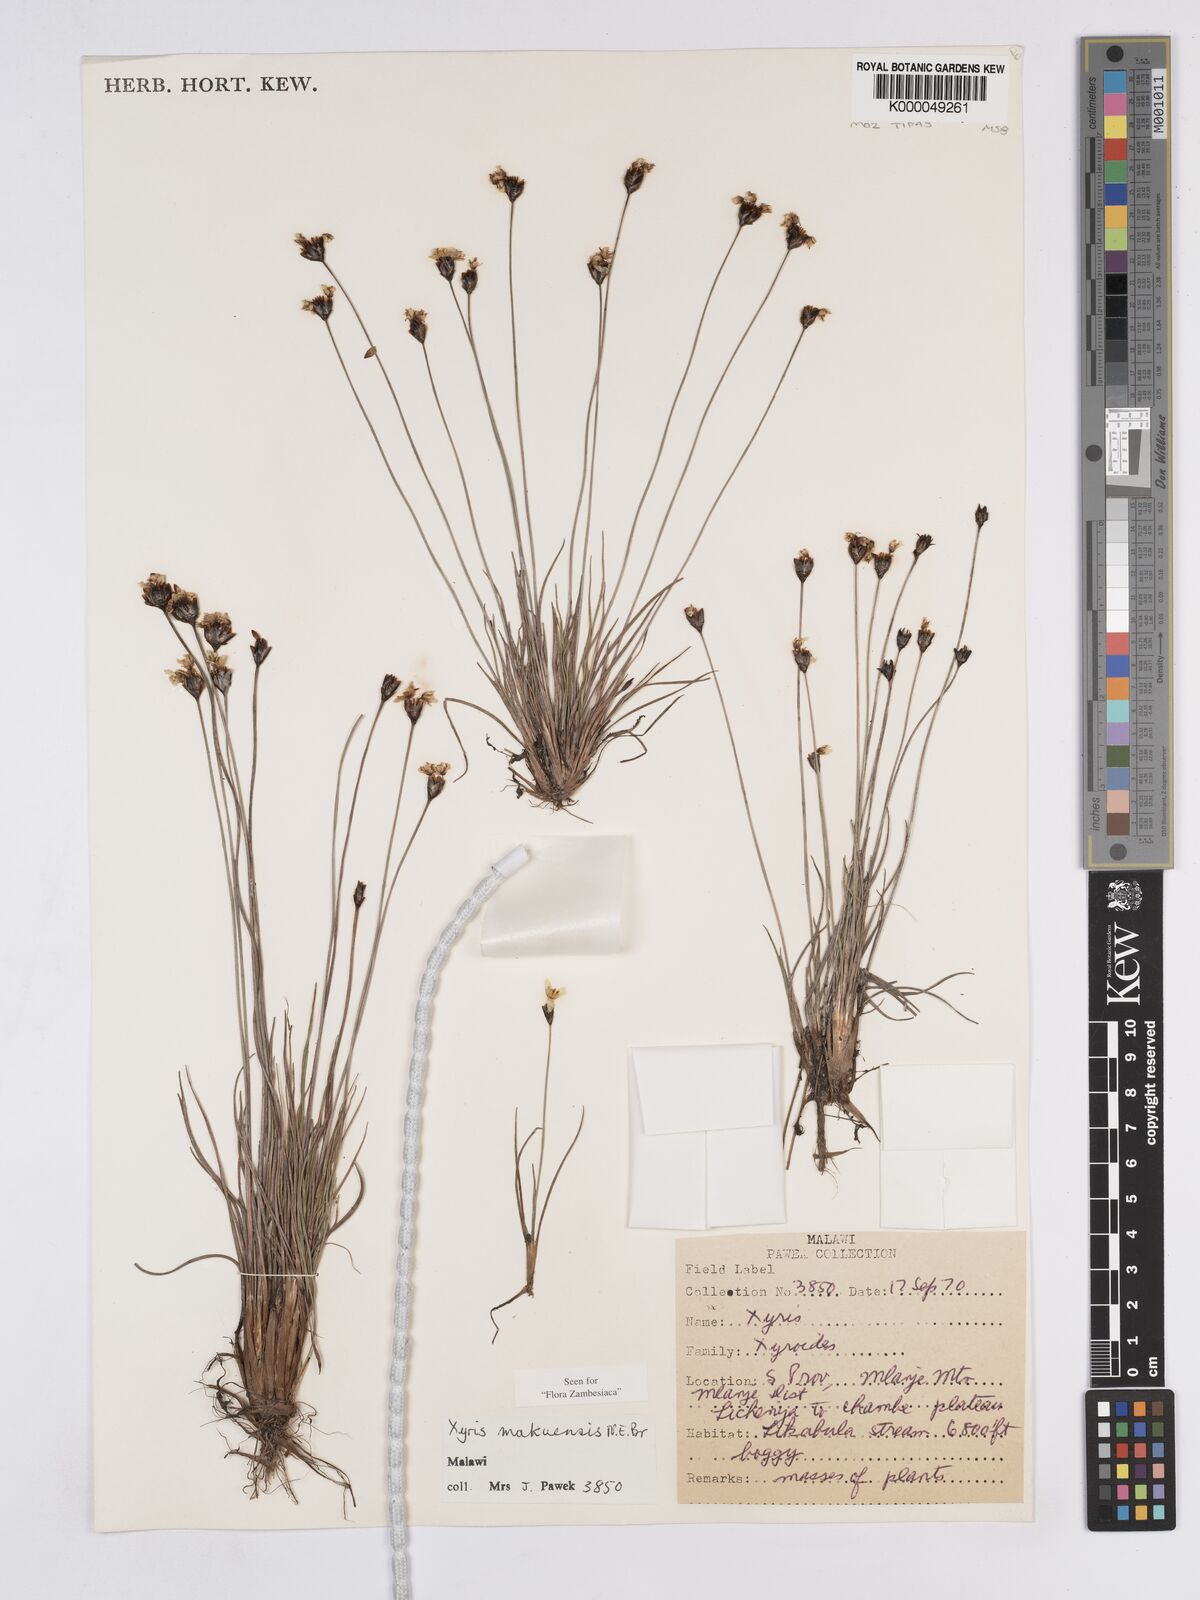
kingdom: Plantae
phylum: Tracheophyta
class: Liliopsida
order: Poales
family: Xyridaceae
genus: Xyris
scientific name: Xyris makuensis
